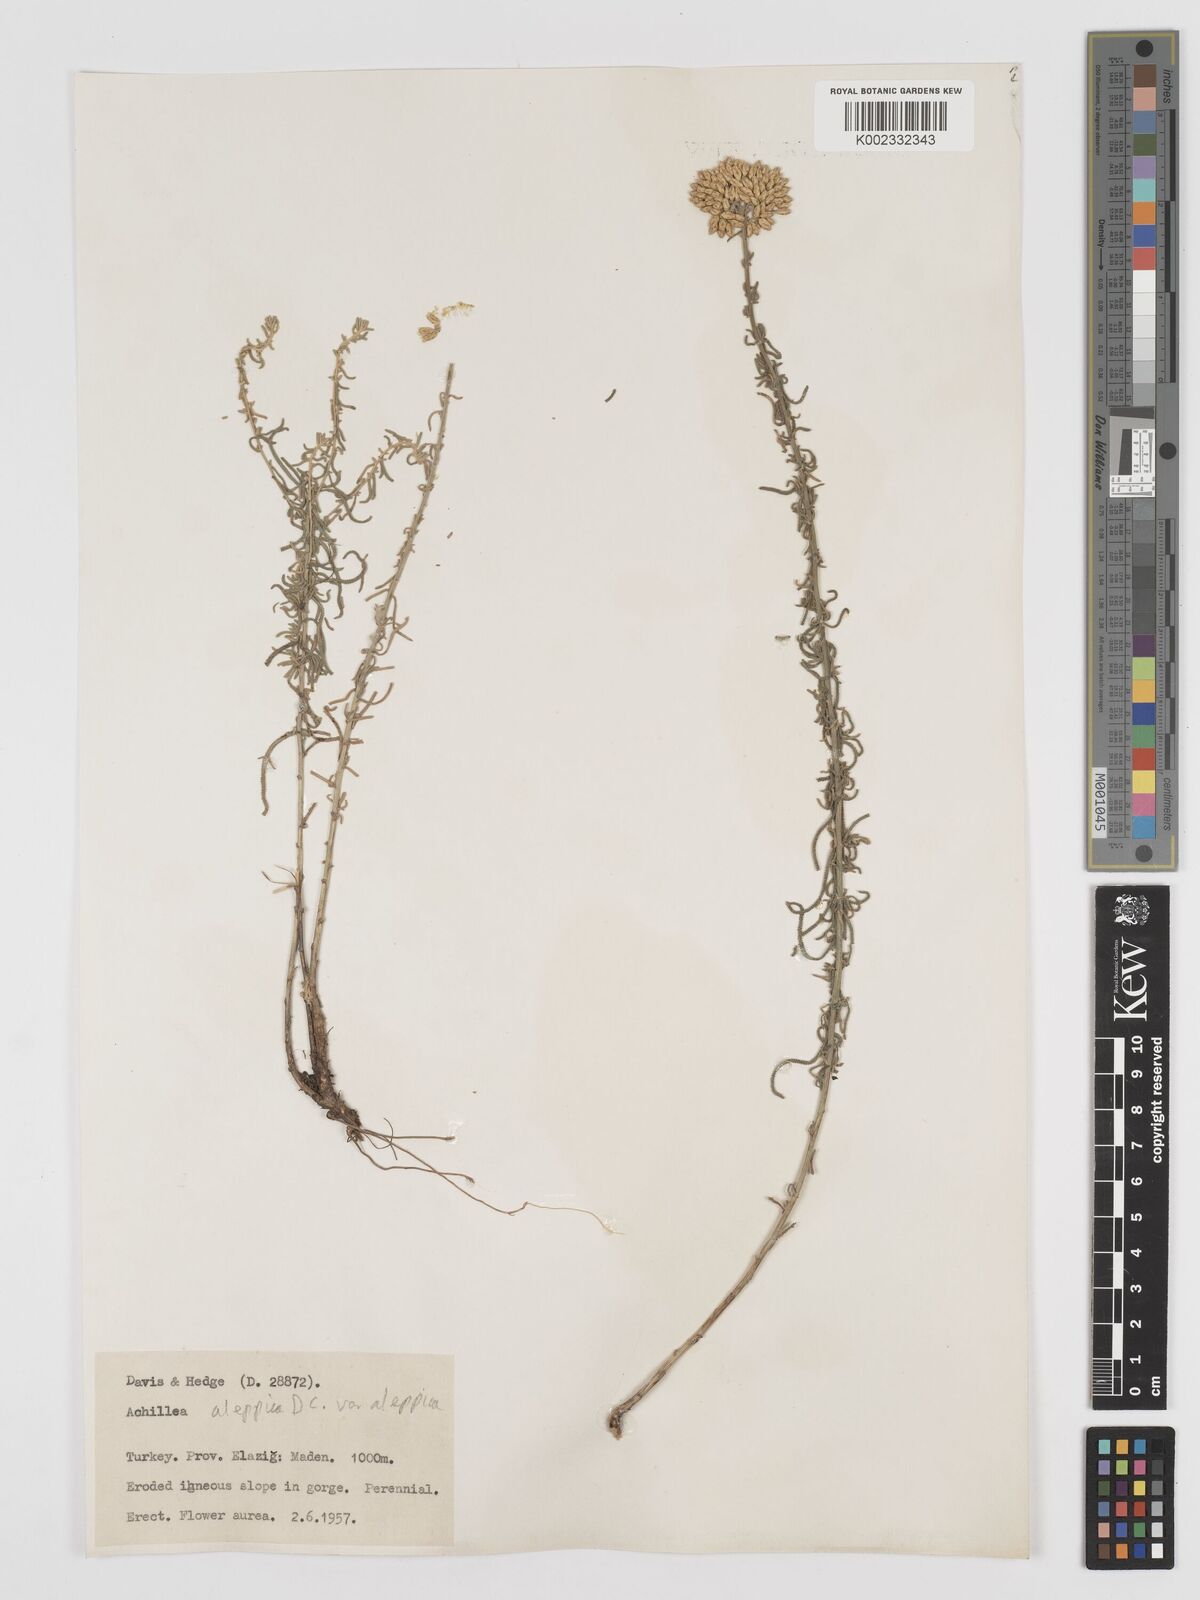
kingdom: Plantae
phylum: Tracheophyta
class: Magnoliopsida
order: Asterales
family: Asteraceae
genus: Achillea
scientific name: Achillea aleppica
